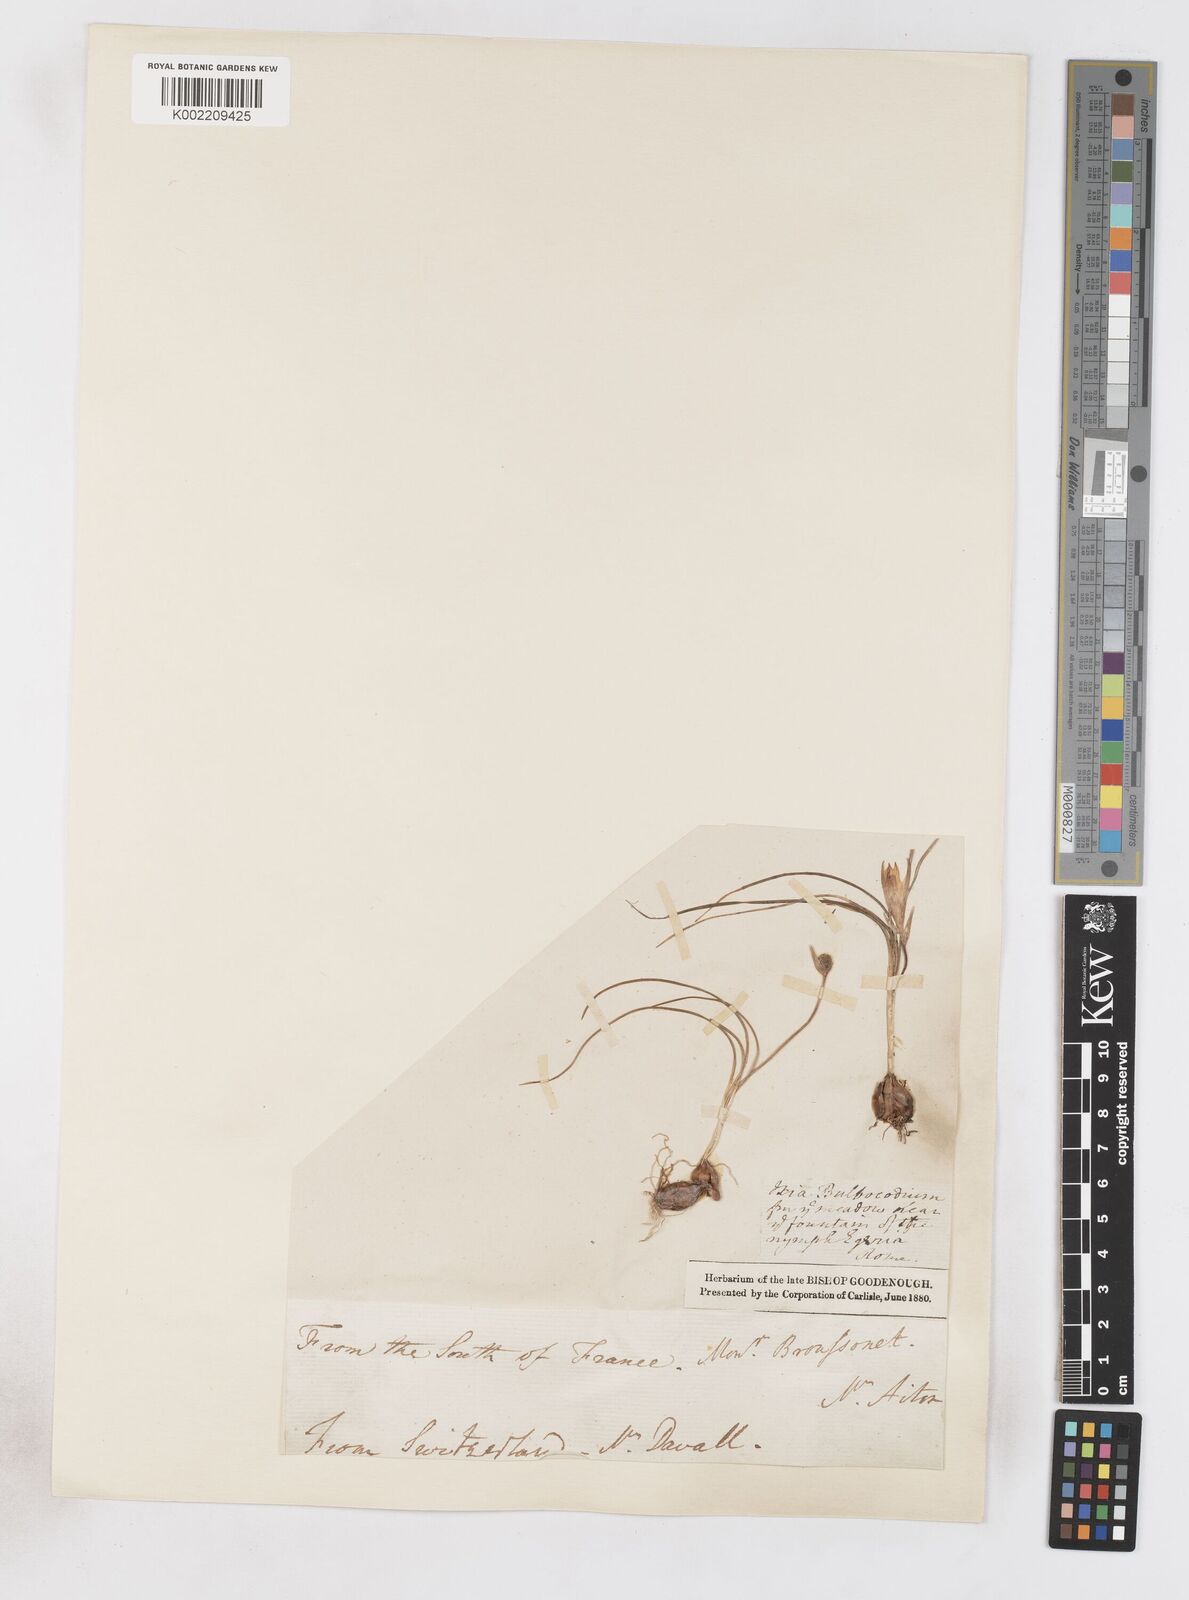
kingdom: Plantae
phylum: Tracheophyta
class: Liliopsida
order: Asparagales
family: Iridaceae
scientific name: Iridaceae
